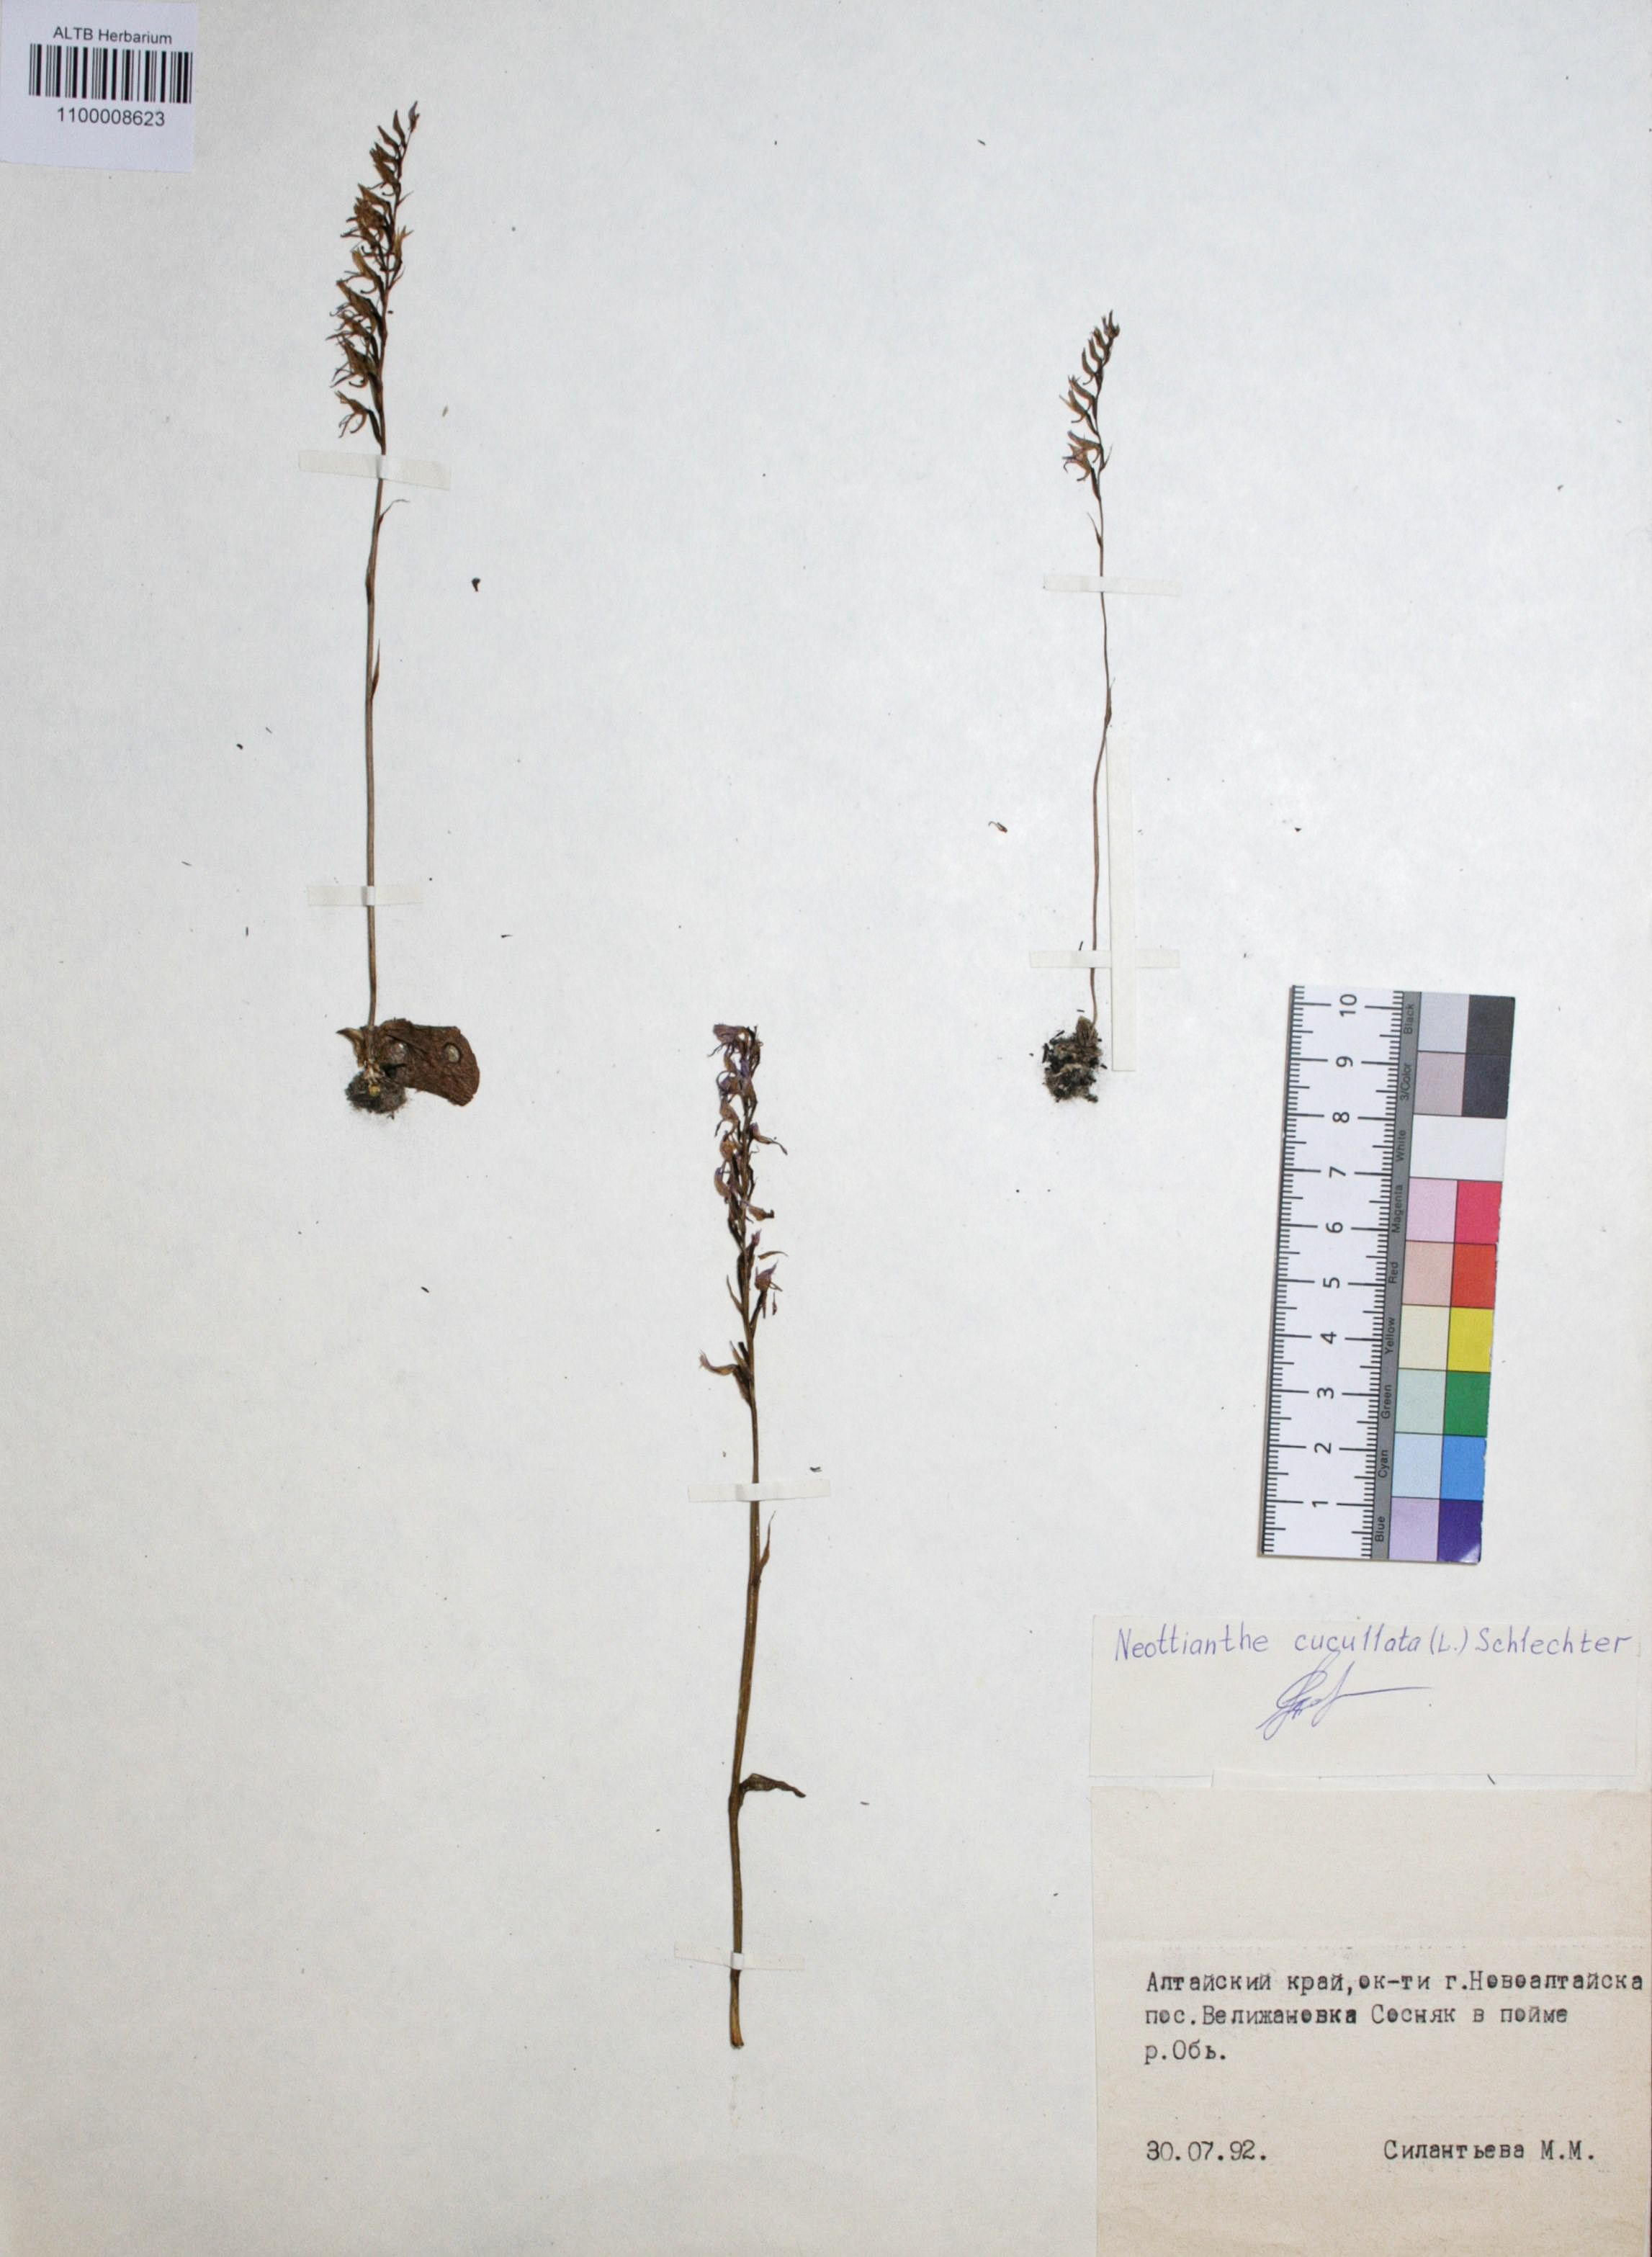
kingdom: Plantae
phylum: Tracheophyta
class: Liliopsida
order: Asparagales
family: Orchidaceae
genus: Hemipilia
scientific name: Hemipilia cucullata
